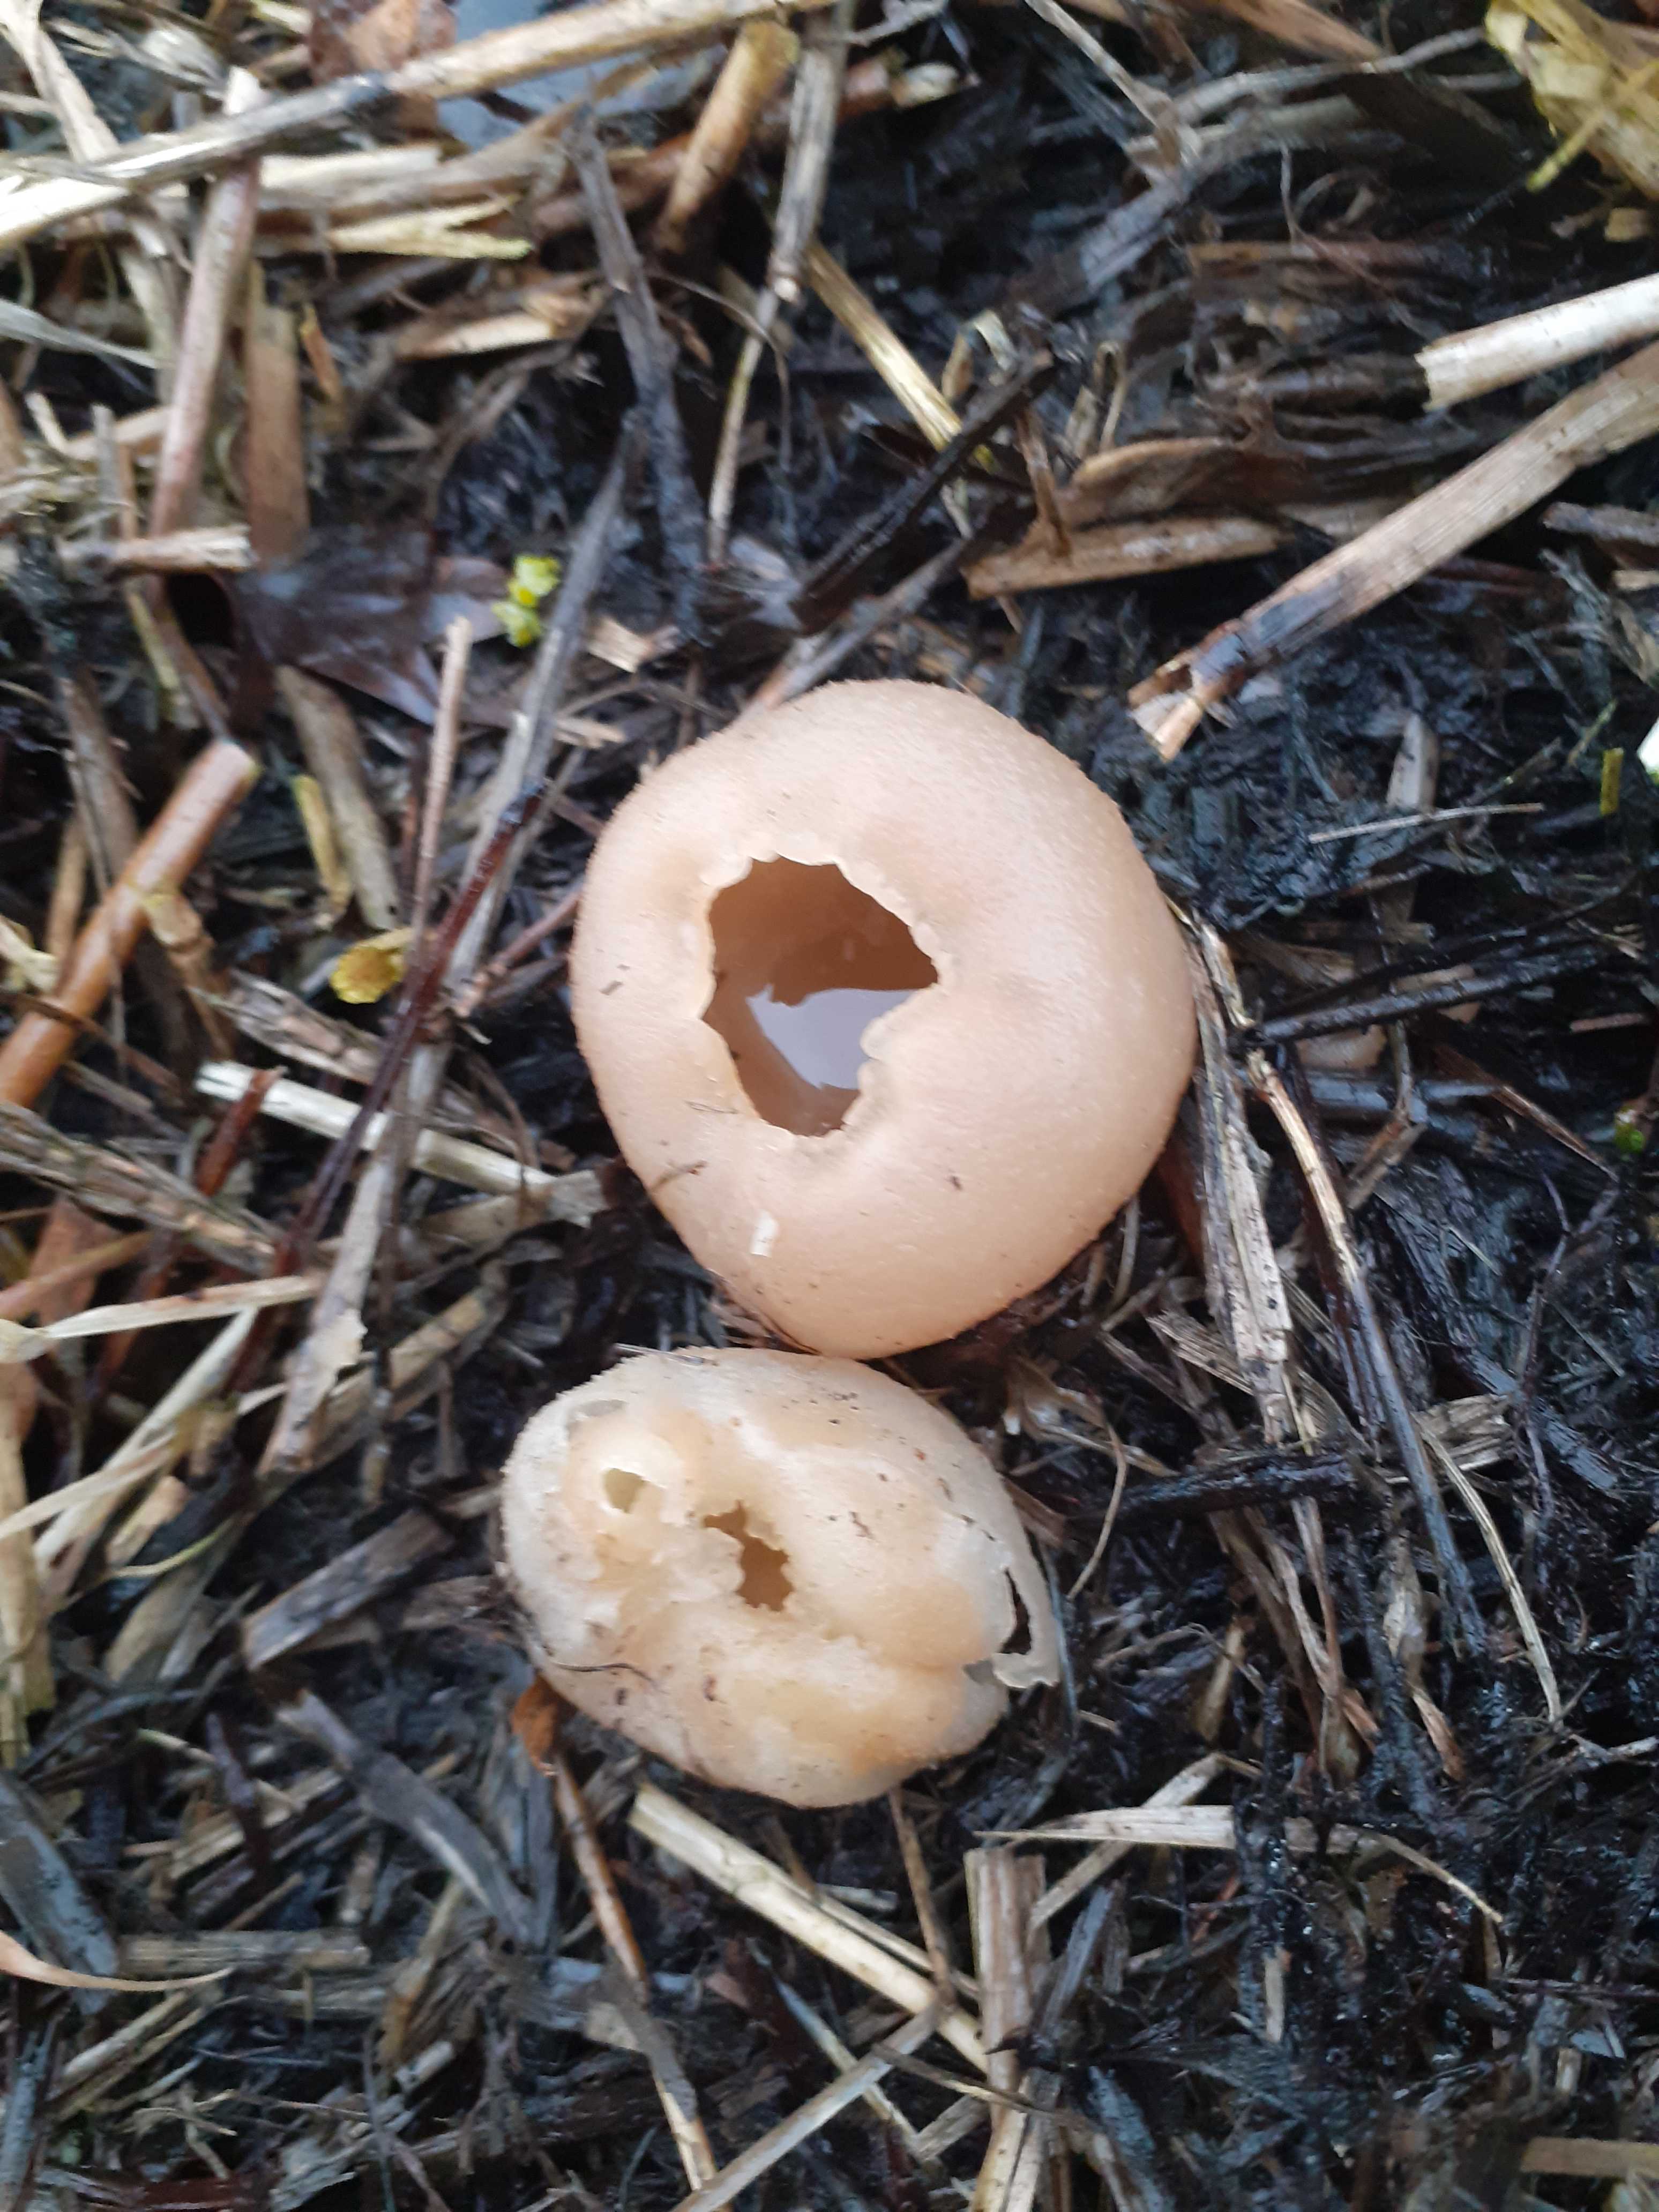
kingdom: Fungi
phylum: Ascomycota
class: Pezizomycetes
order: Pezizales
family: Pezizaceae
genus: Peziza
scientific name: Peziza vesiculosa
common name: blære-bægersvamp
